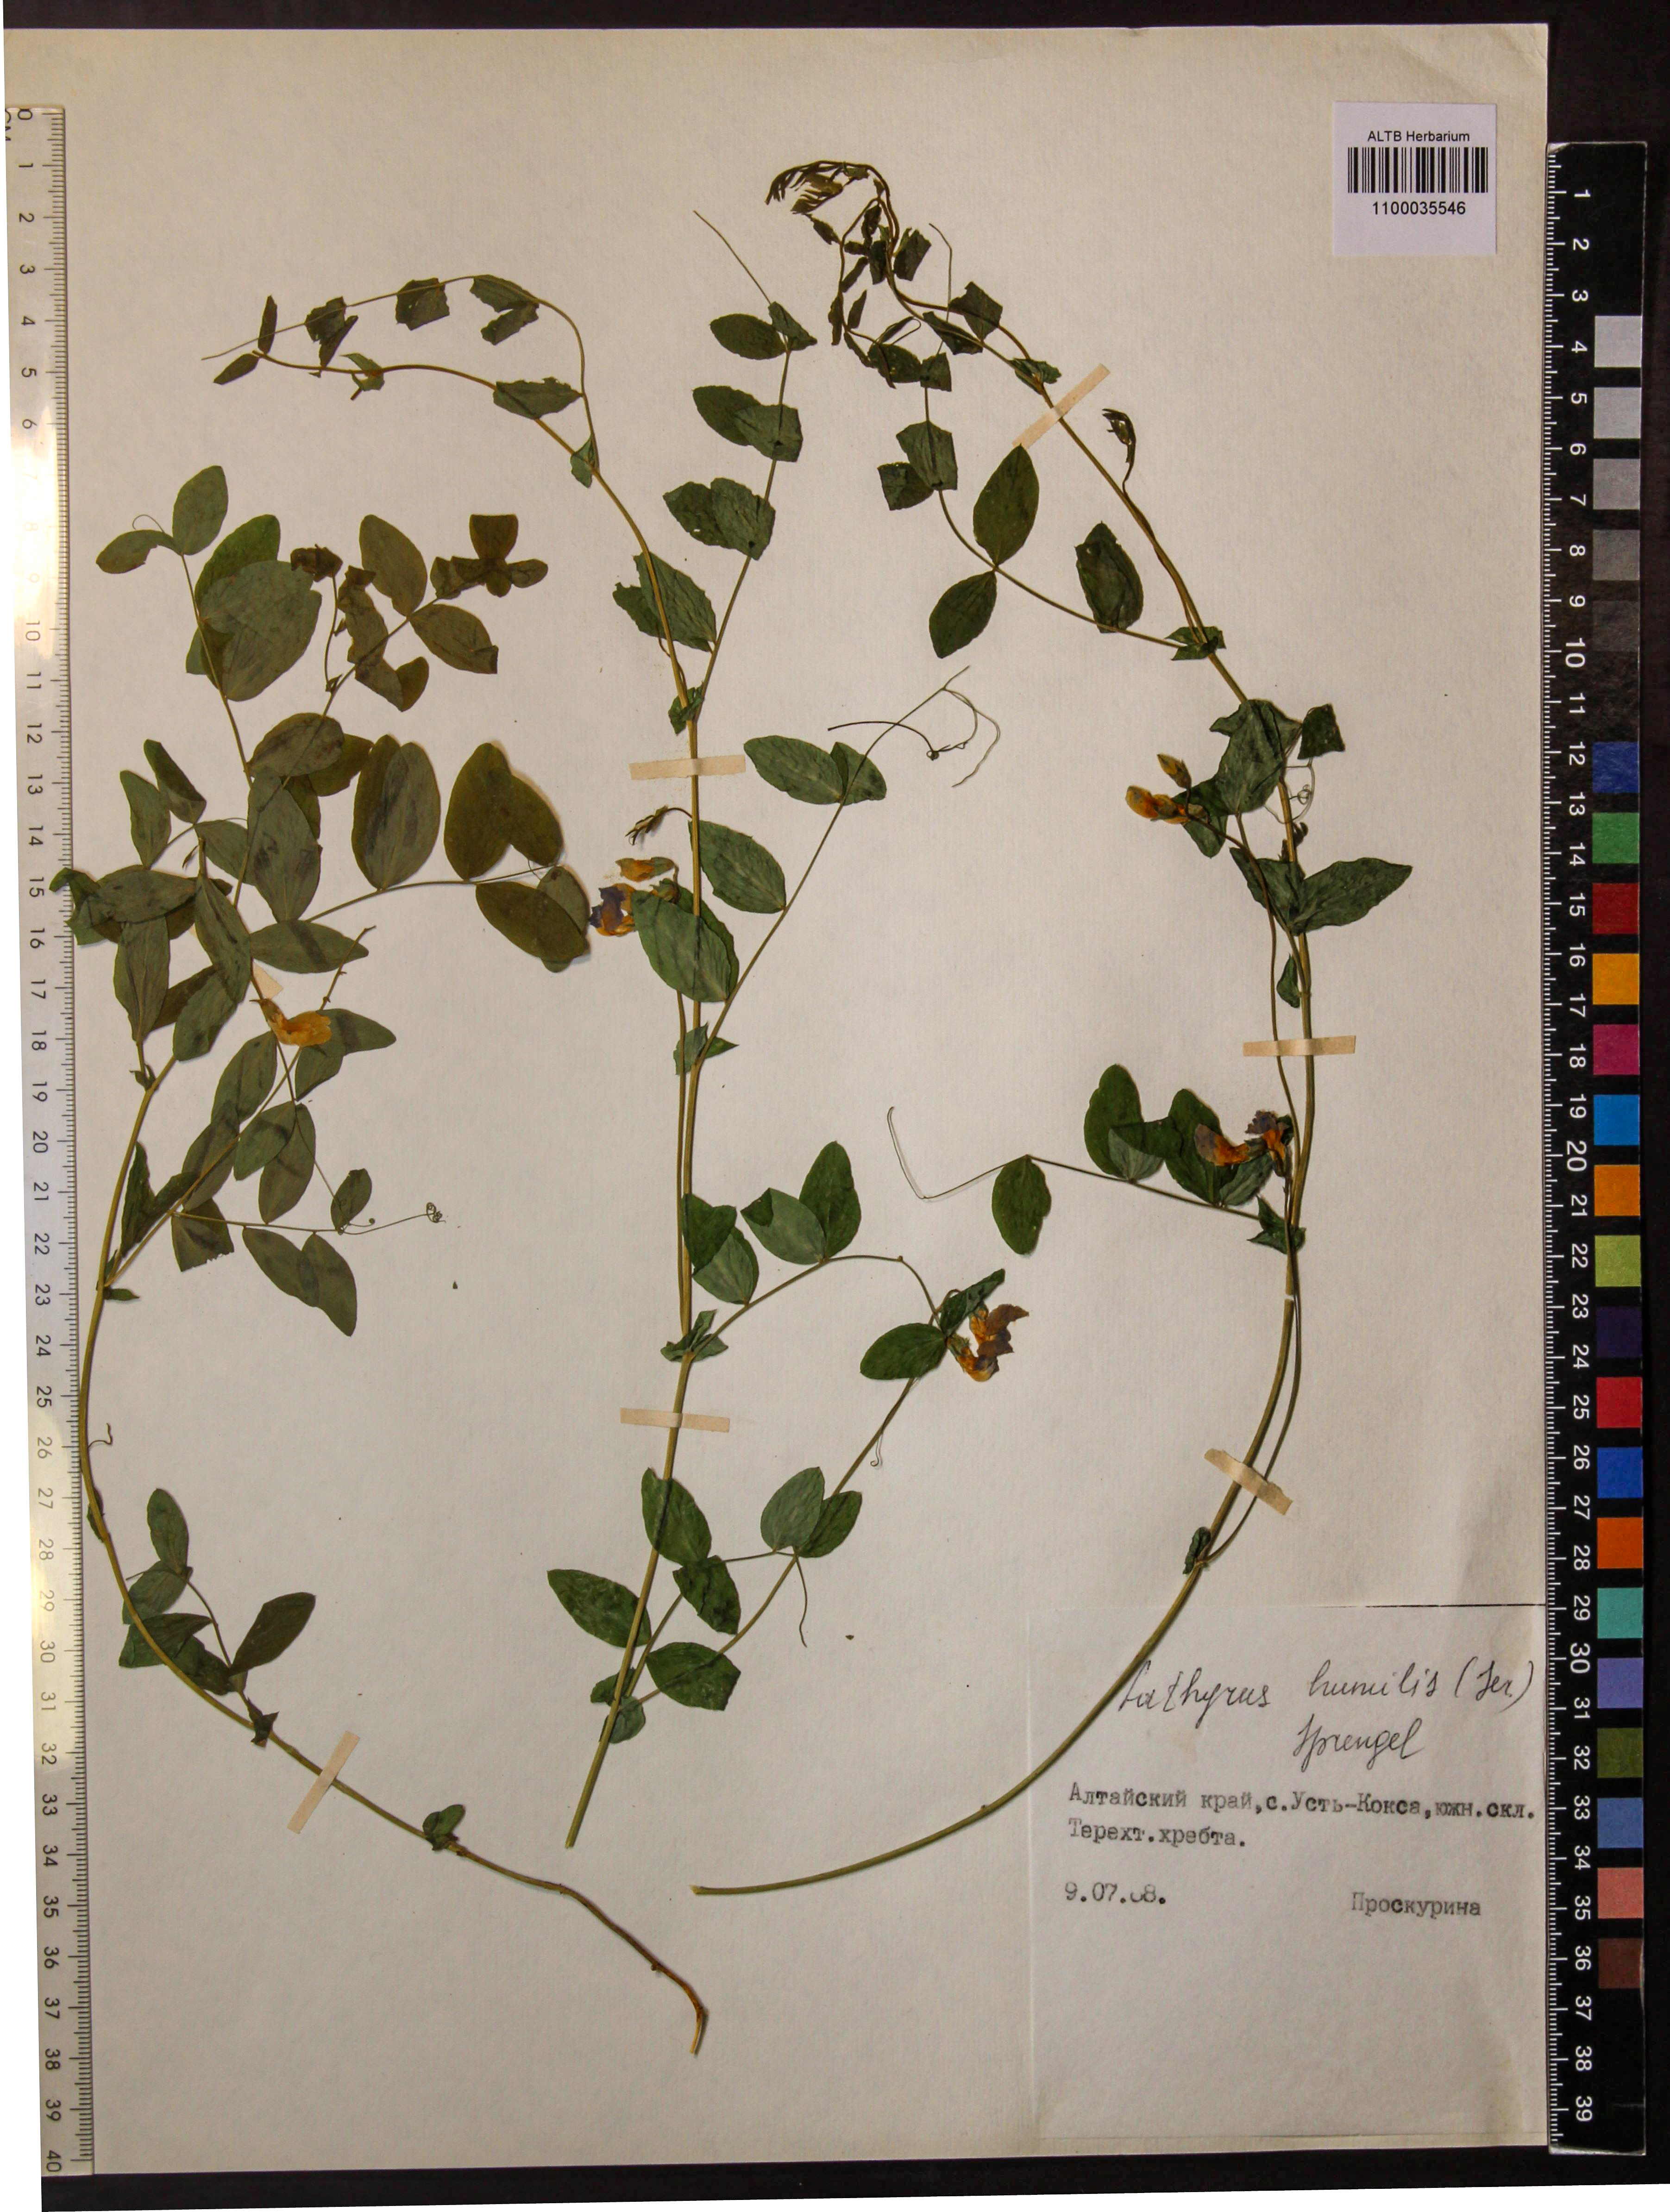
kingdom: Plantae
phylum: Tracheophyta
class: Magnoliopsida
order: Fabales
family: Fabaceae
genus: Lathyrus
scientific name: Lathyrus humilis
